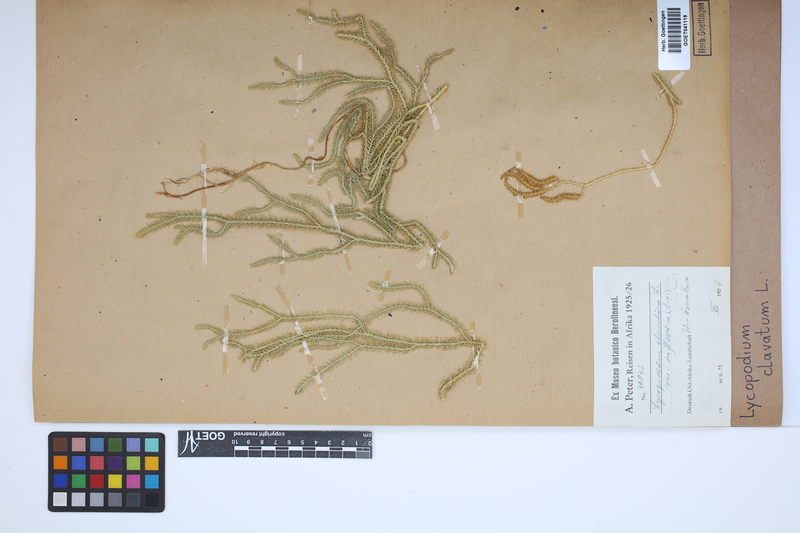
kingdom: Plantae
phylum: Tracheophyta
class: Lycopodiopsida
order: Lycopodiales
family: Lycopodiaceae
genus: Lycopodium
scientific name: Lycopodium clavatum
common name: Stag's-horn clubmoss
